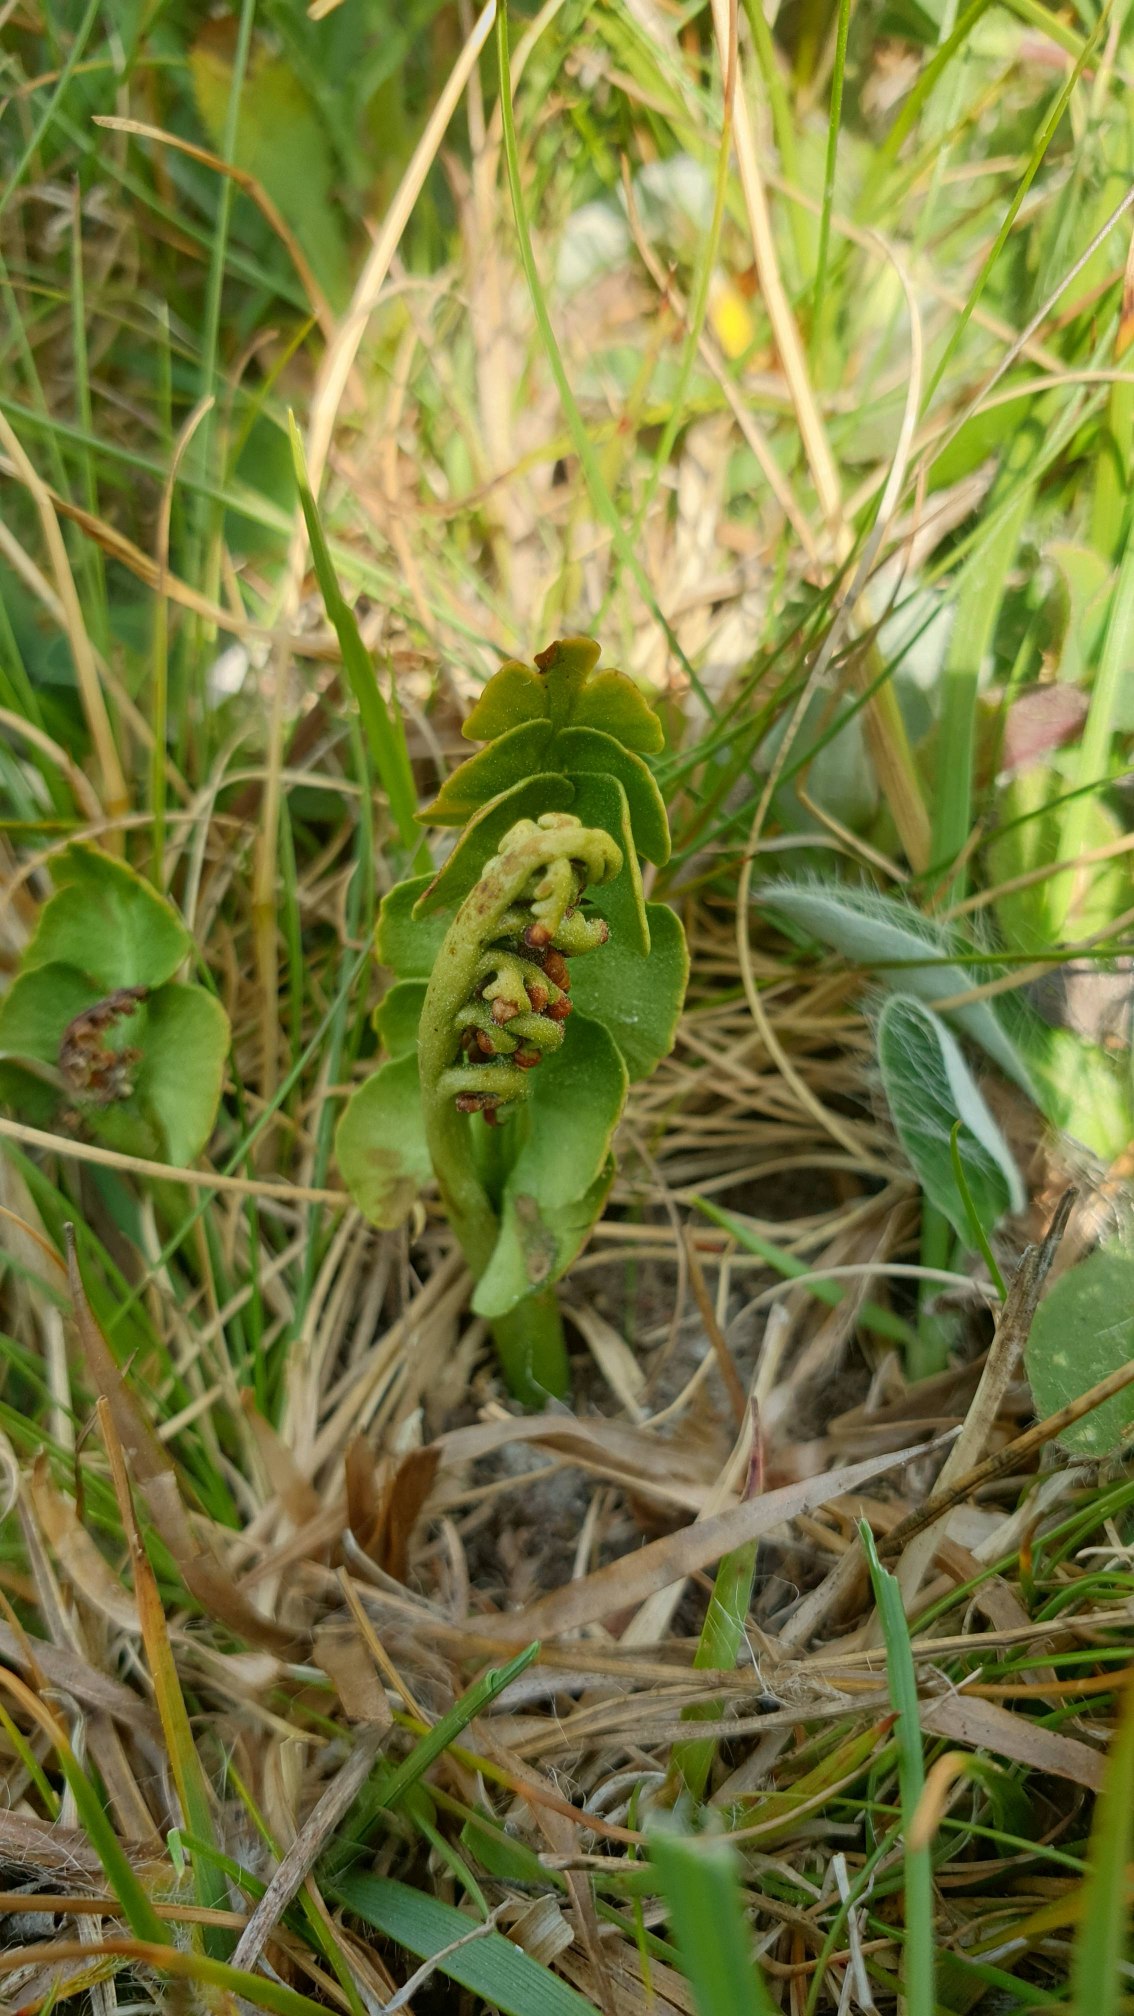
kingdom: Plantae
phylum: Tracheophyta
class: Polypodiopsida
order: Ophioglossales
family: Ophioglossaceae
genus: Botrychium
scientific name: Botrychium lunaria
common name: Almindelig månerude
